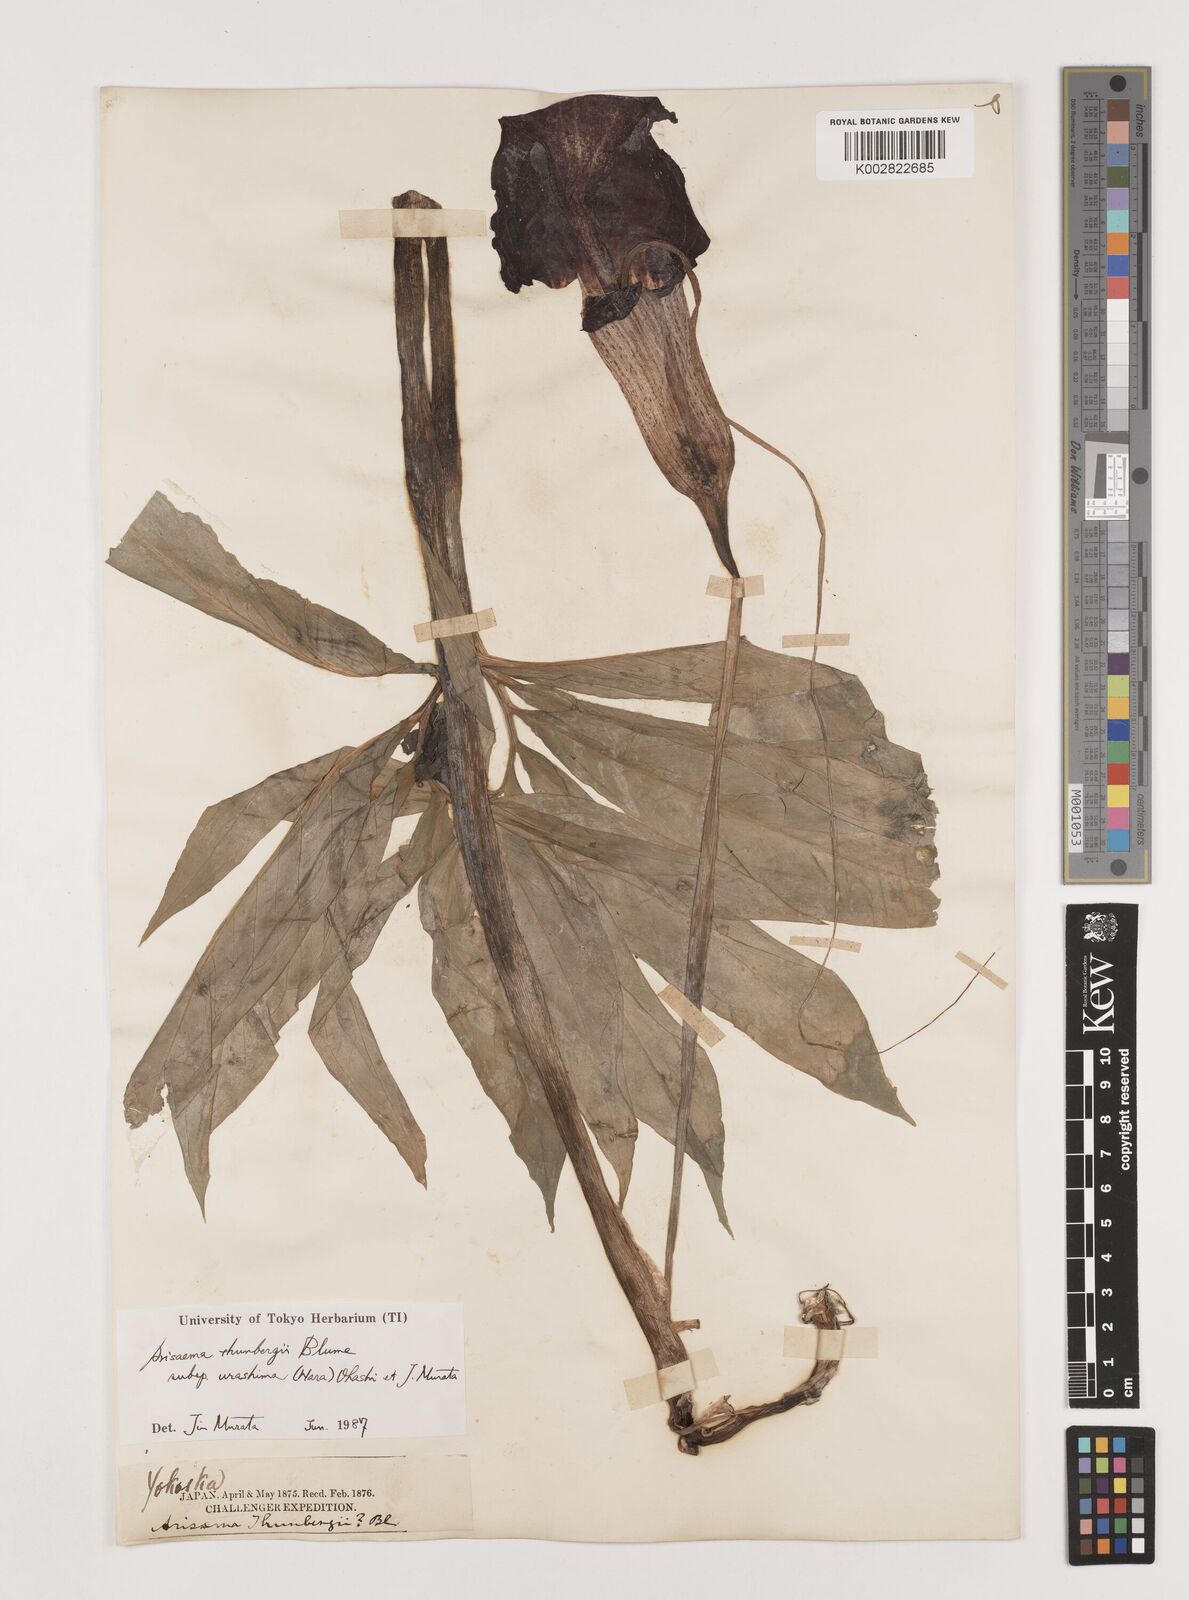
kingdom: Plantae
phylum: Tracheophyta
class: Liliopsida
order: Alismatales
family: Araceae
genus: Arisaema
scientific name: Arisaema thunbergii
